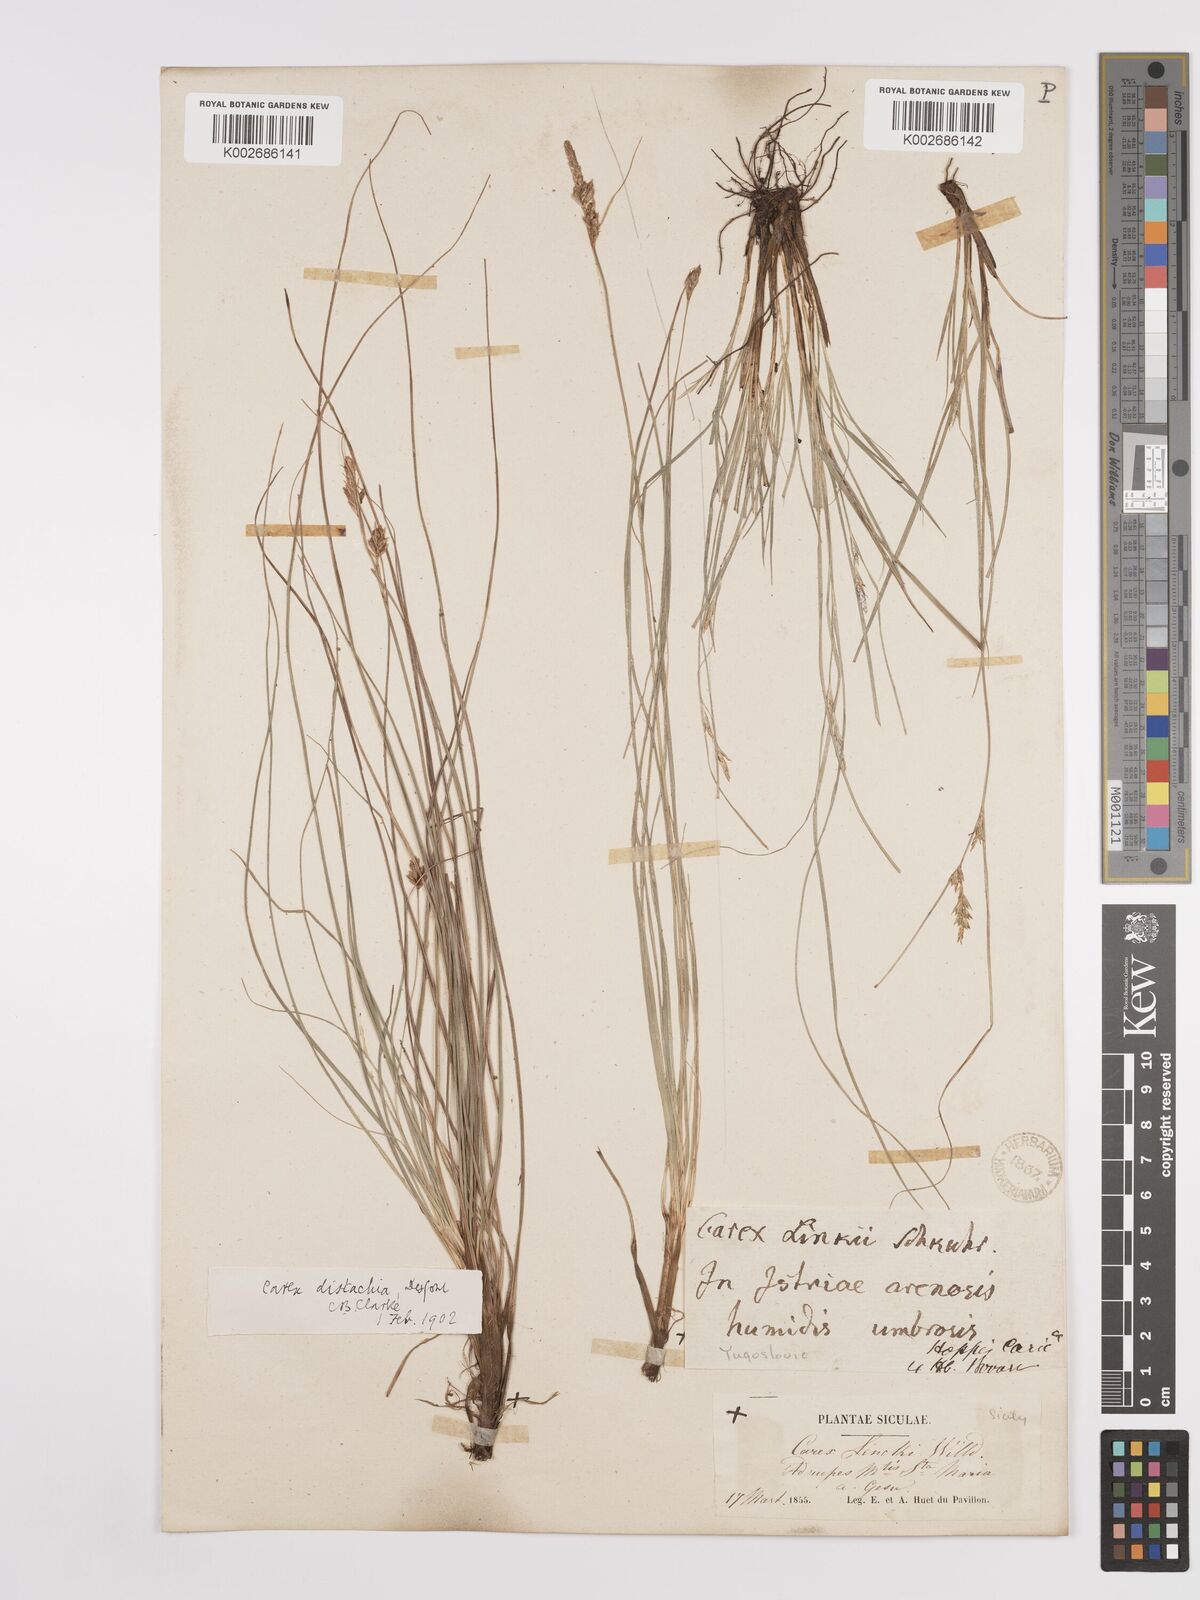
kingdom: Plantae
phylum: Tracheophyta
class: Liliopsida
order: Poales
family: Cyperaceae
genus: Carex
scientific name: Carex distachya
